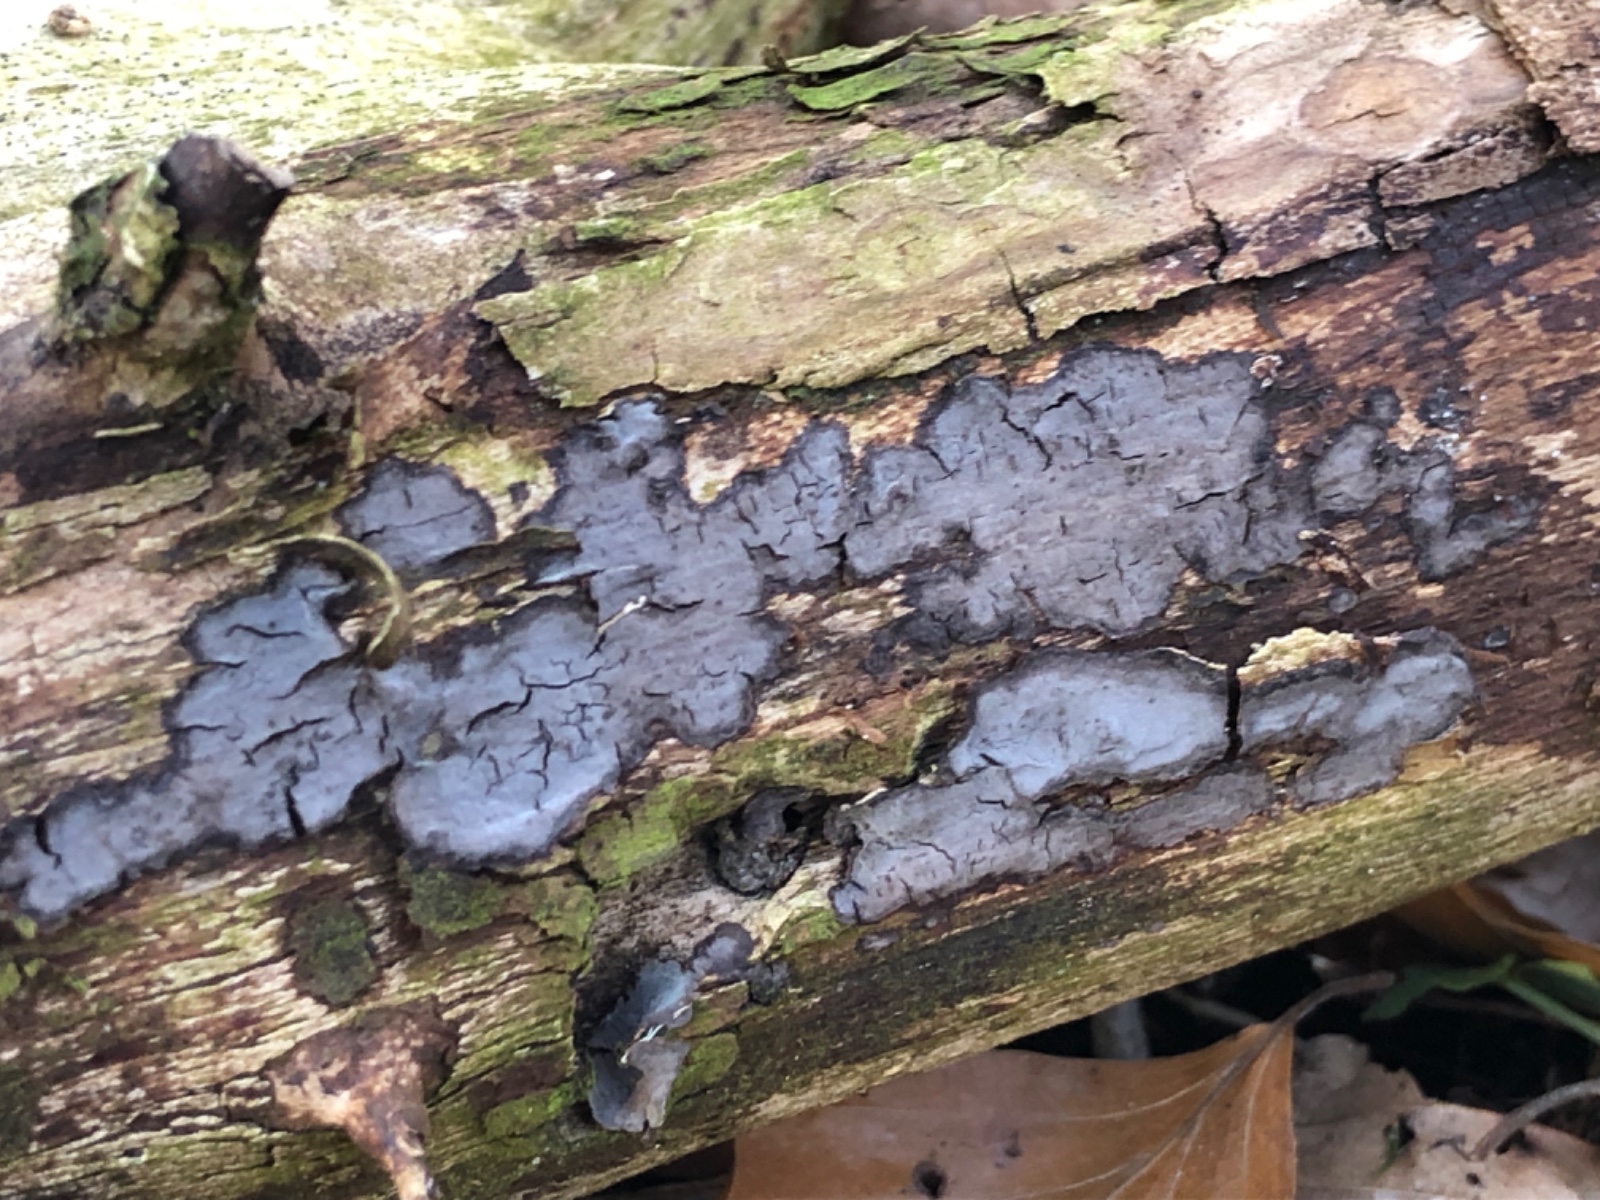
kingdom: Fungi
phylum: Basidiomycota
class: Agaricomycetes
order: Russulales
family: Peniophoraceae
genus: Peniophora
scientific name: Peniophora limitata
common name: mørkrandet voksskind
